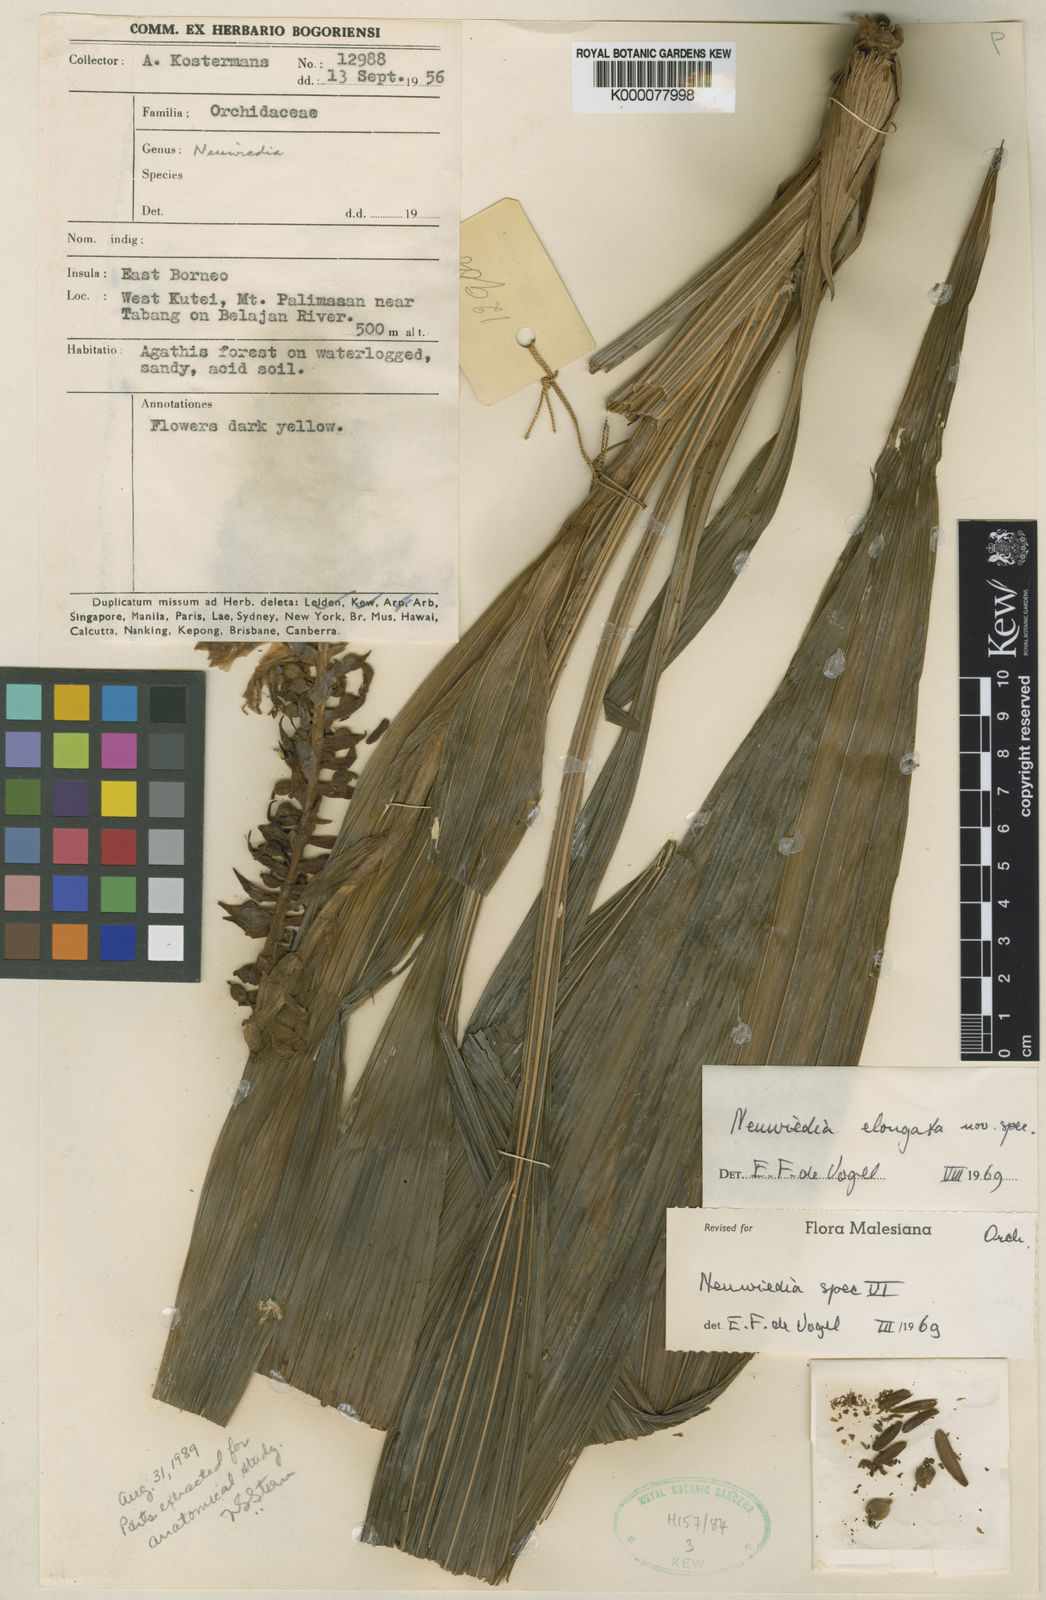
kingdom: Plantae
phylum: Tracheophyta
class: Liliopsida
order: Asparagales
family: Orchidaceae
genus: Neuwiedia
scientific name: Neuwiedia elongata
